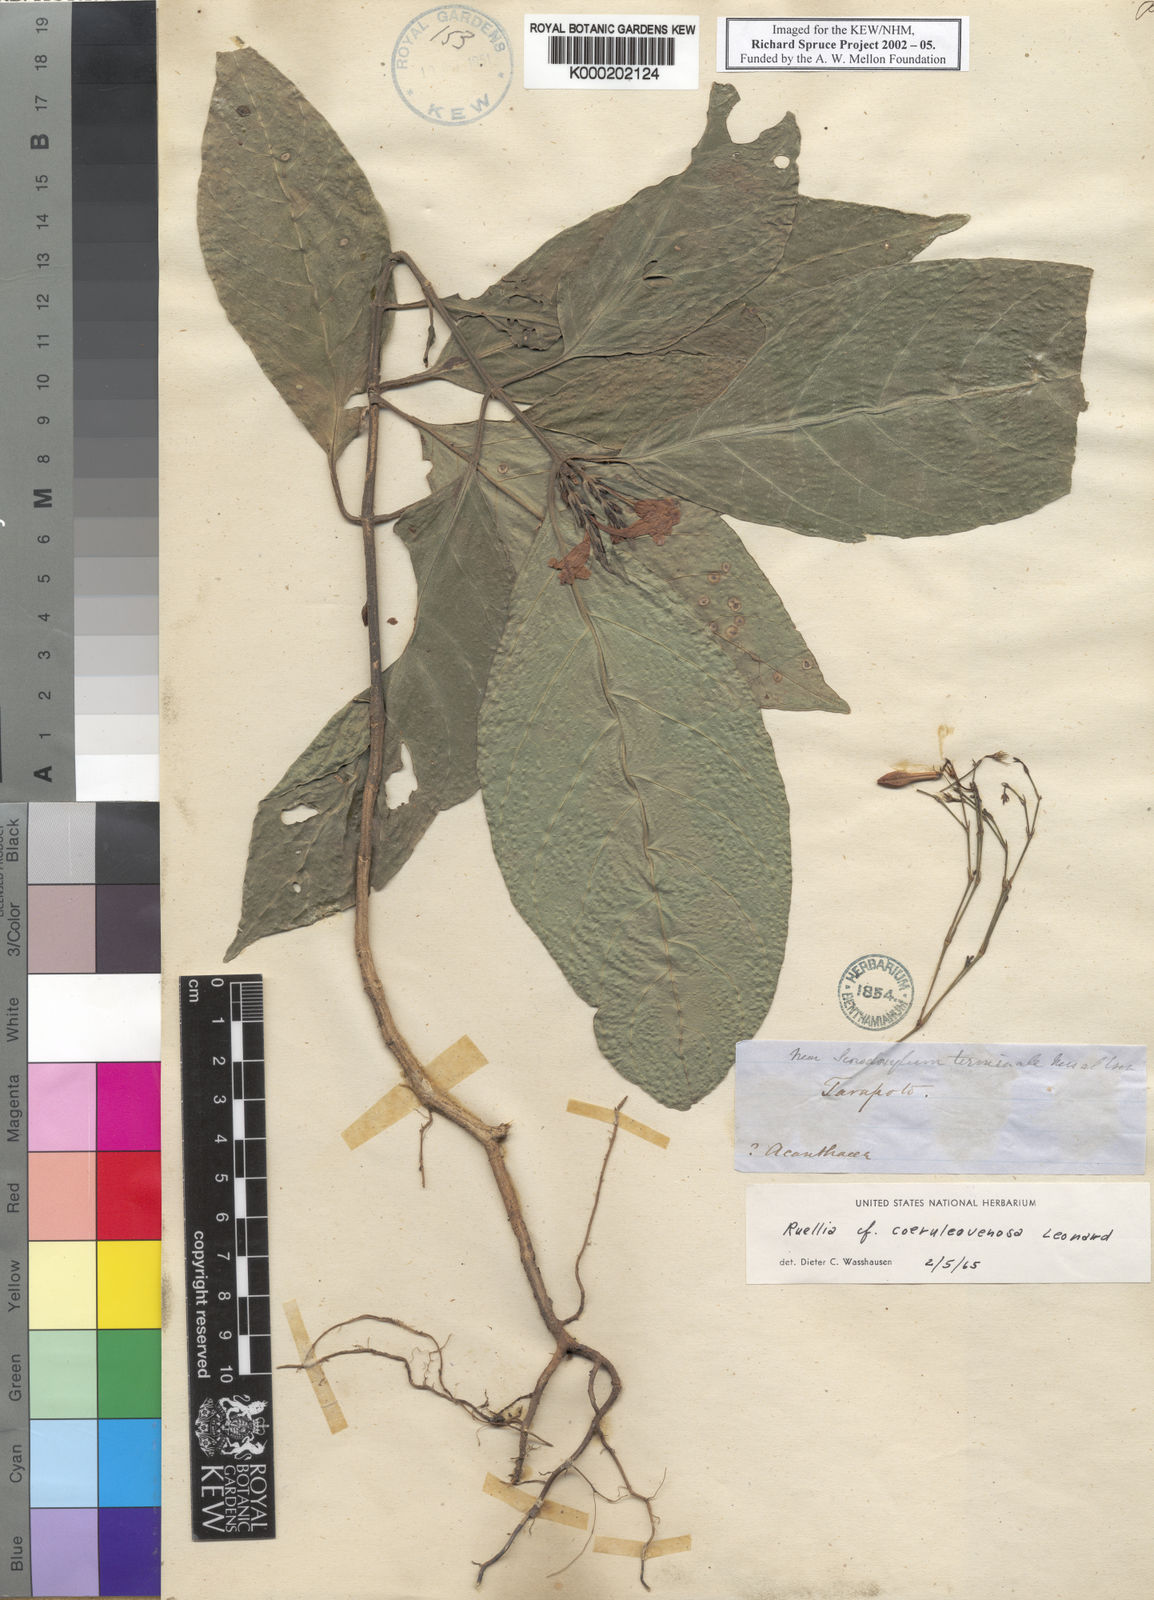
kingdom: Plantae
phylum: Tracheophyta
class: Magnoliopsida
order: Lamiales
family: Acanthaceae
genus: Ruellia
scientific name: Ruellia
